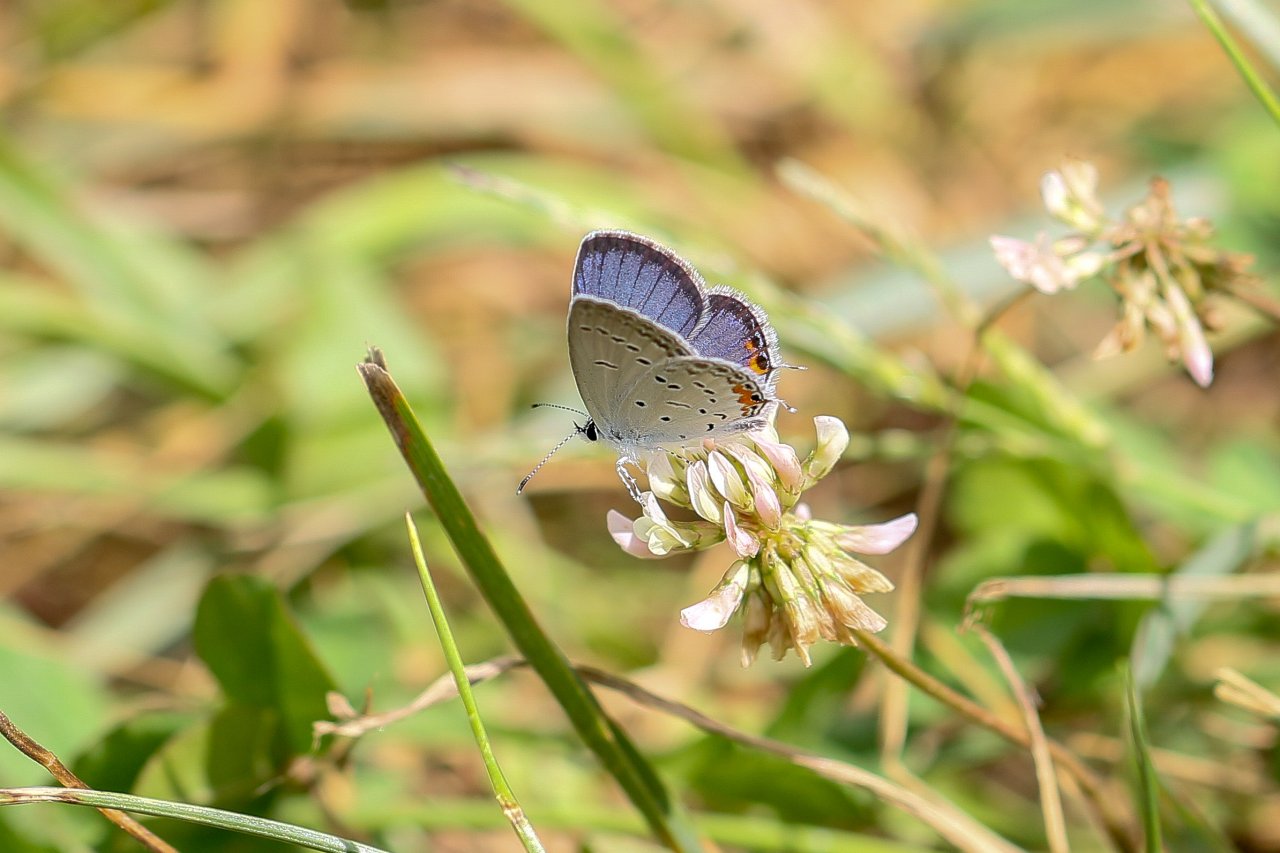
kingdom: Animalia
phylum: Arthropoda
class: Insecta
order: Lepidoptera
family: Lycaenidae
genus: Elkalyce
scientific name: Elkalyce comyntas
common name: Eastern Tailed-Blue
